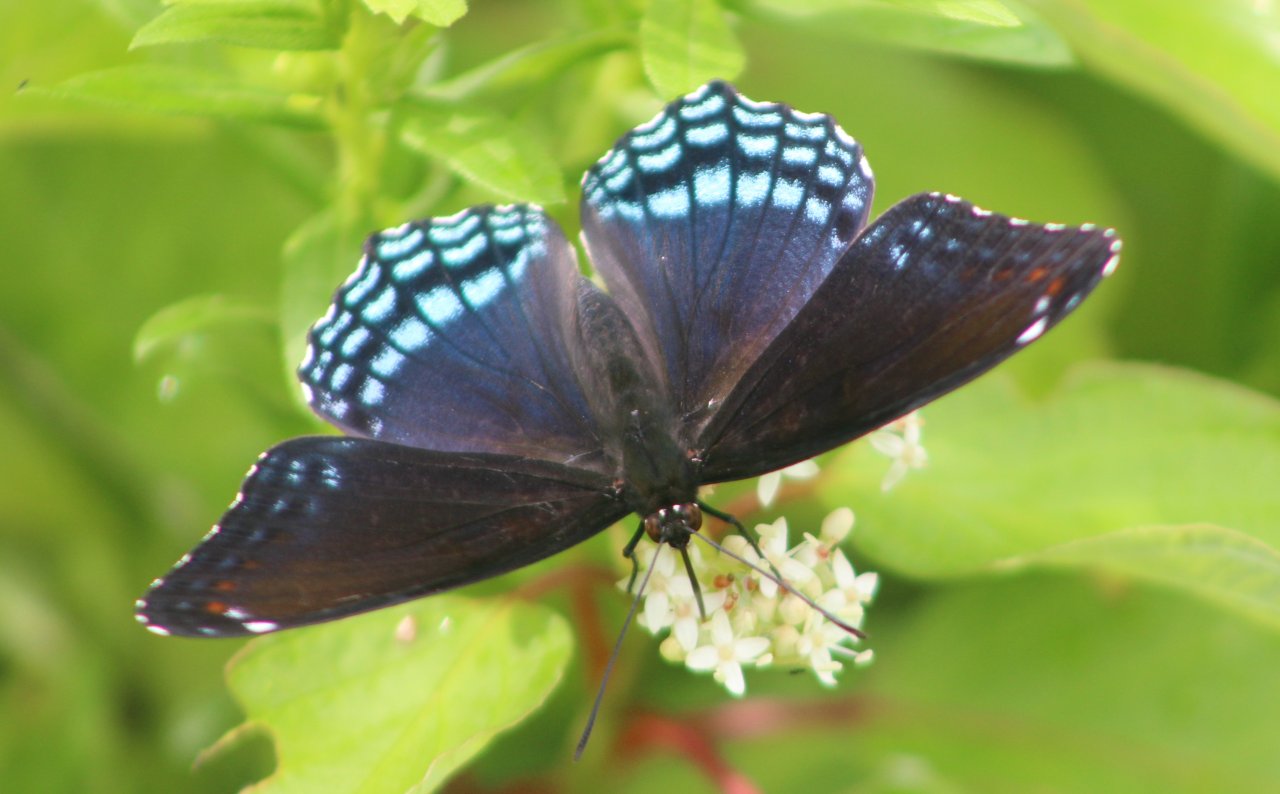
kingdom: Animalia
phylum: Arthropoda
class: Insecta
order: Lepidoptera
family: Nymphalidae
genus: Limenitis
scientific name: Limenitis astyanax
